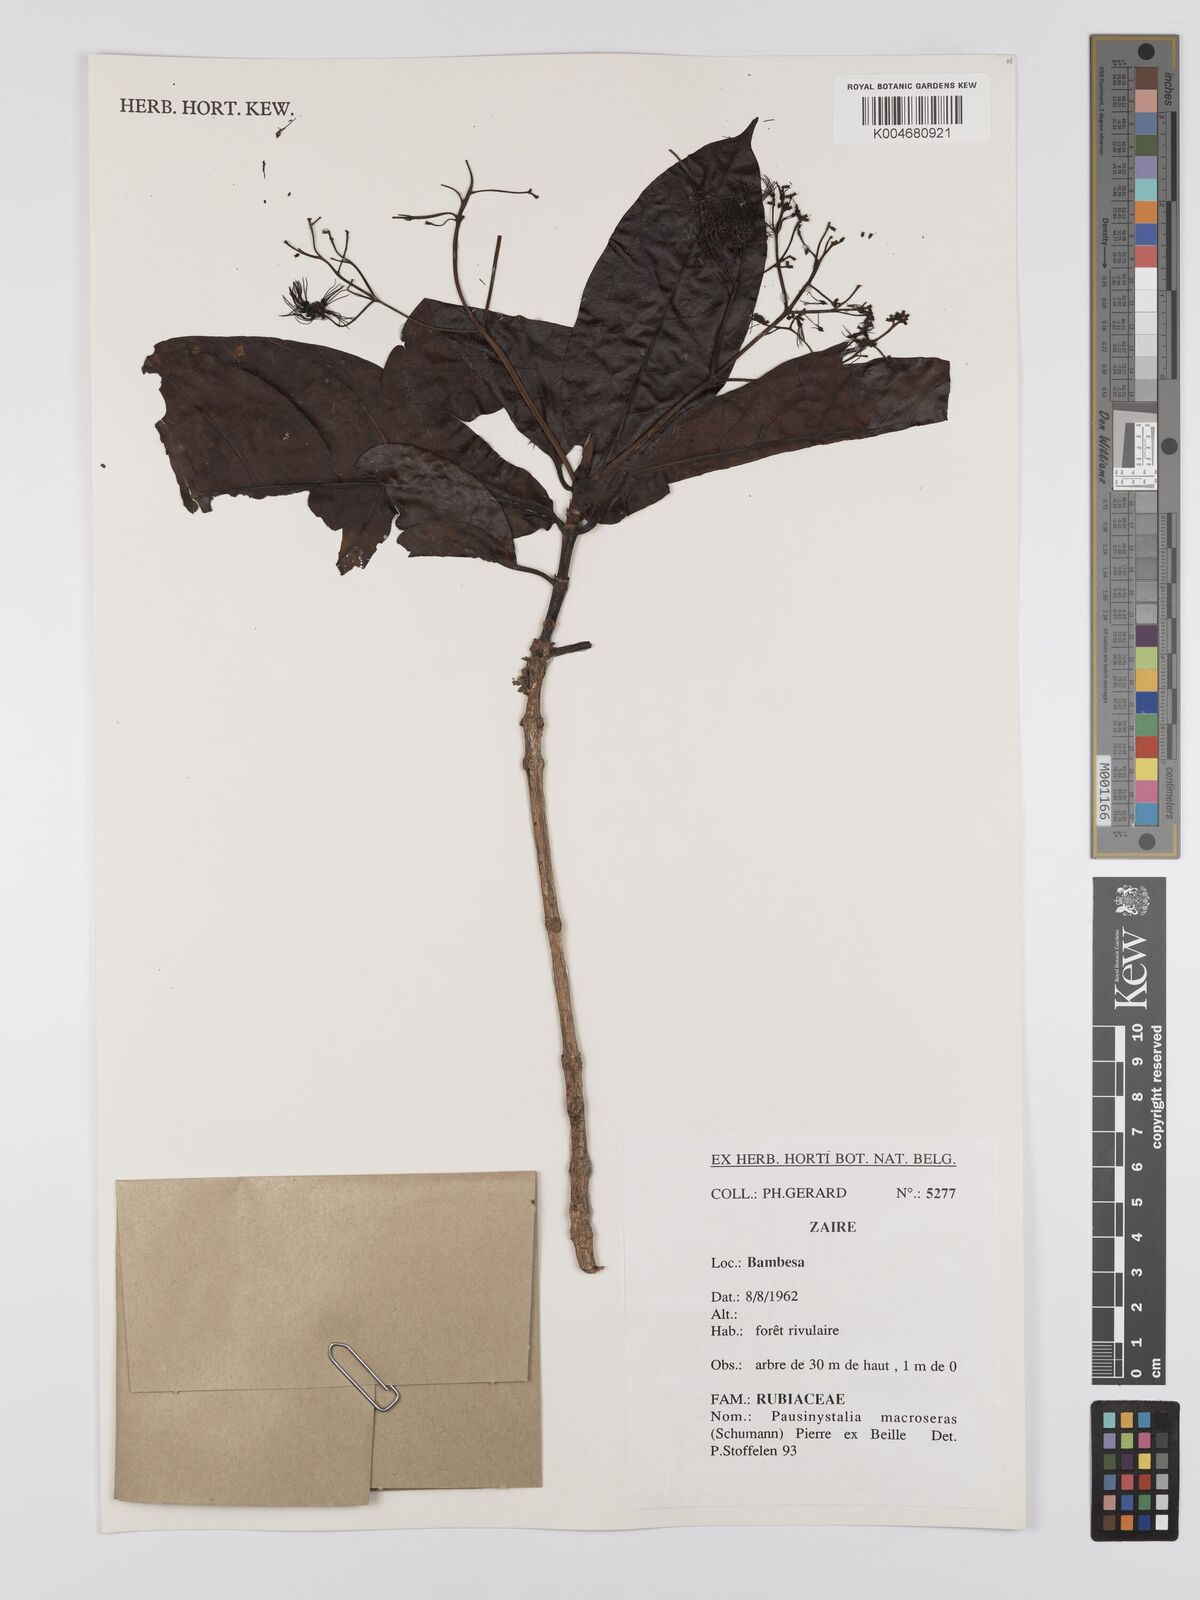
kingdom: Plantae
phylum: Tracheophyta
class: Magnoliopsida
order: Gentianales
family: Rubiaceae
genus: Corynanthe
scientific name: Corynanthe macroceras
